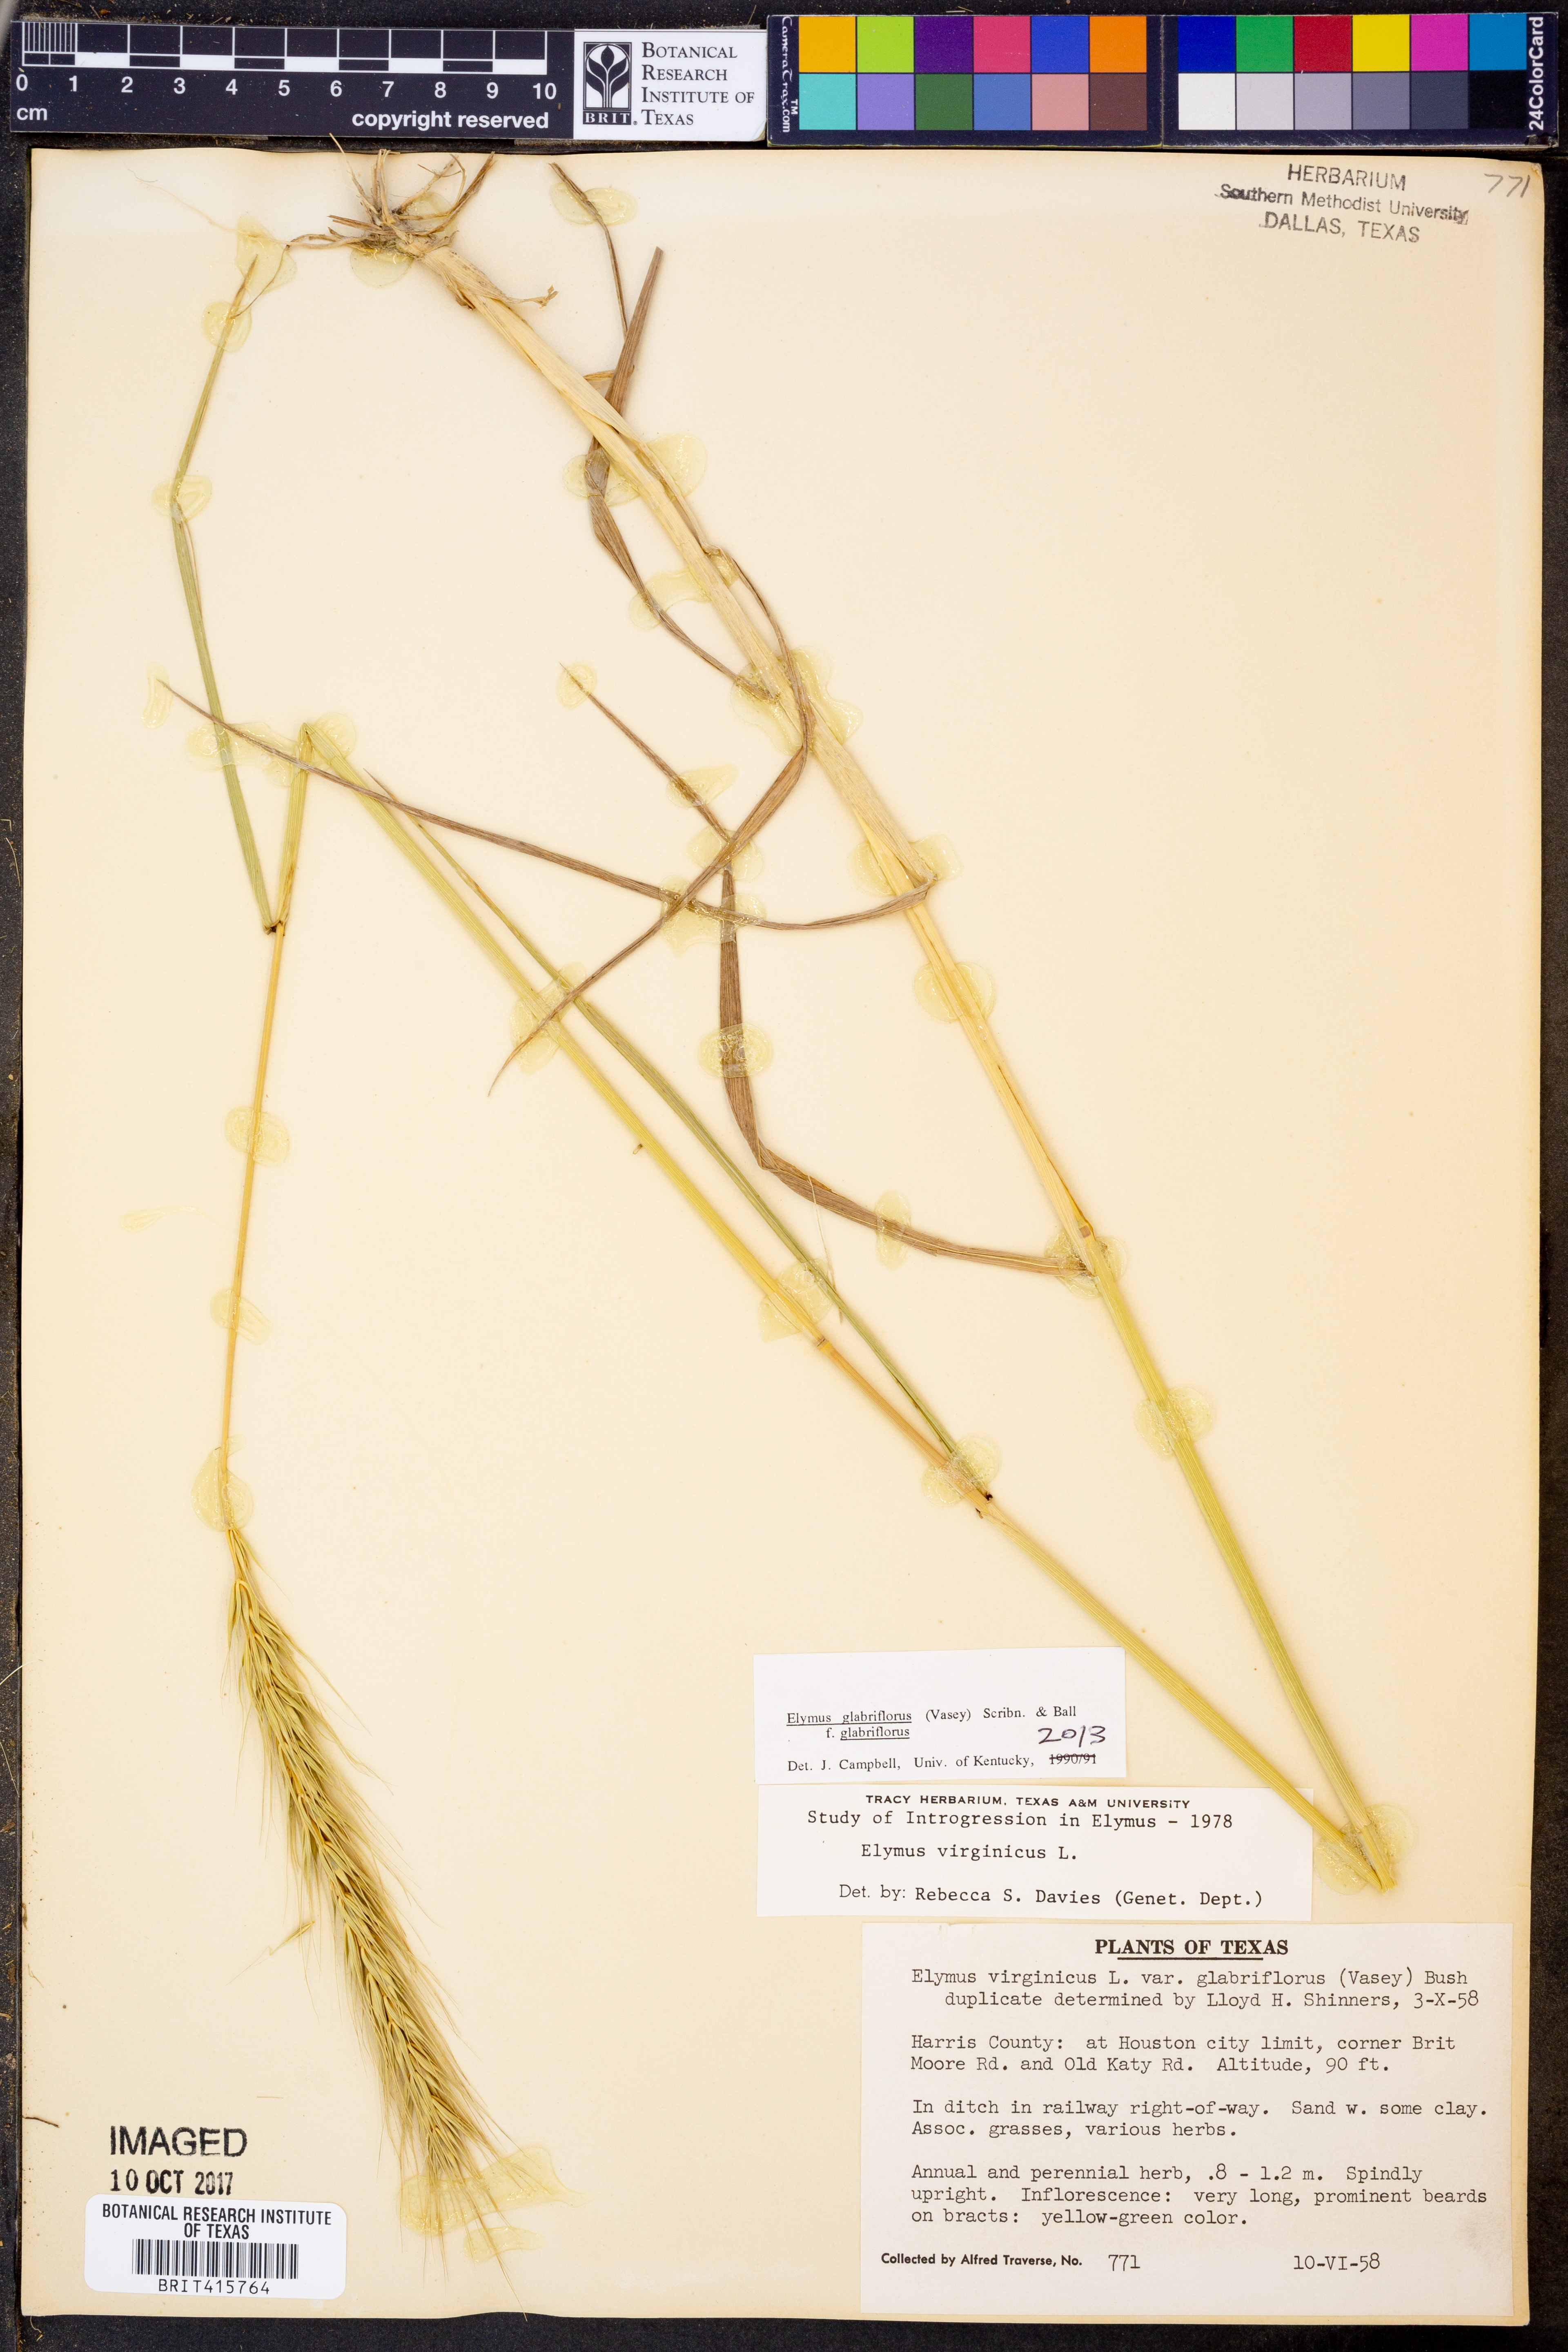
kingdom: Plantae
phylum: Tracheophyta
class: Liliopsida
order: Poales
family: Poaceae
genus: Elymus
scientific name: Elymus virginicus
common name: Common eastern wildrye
